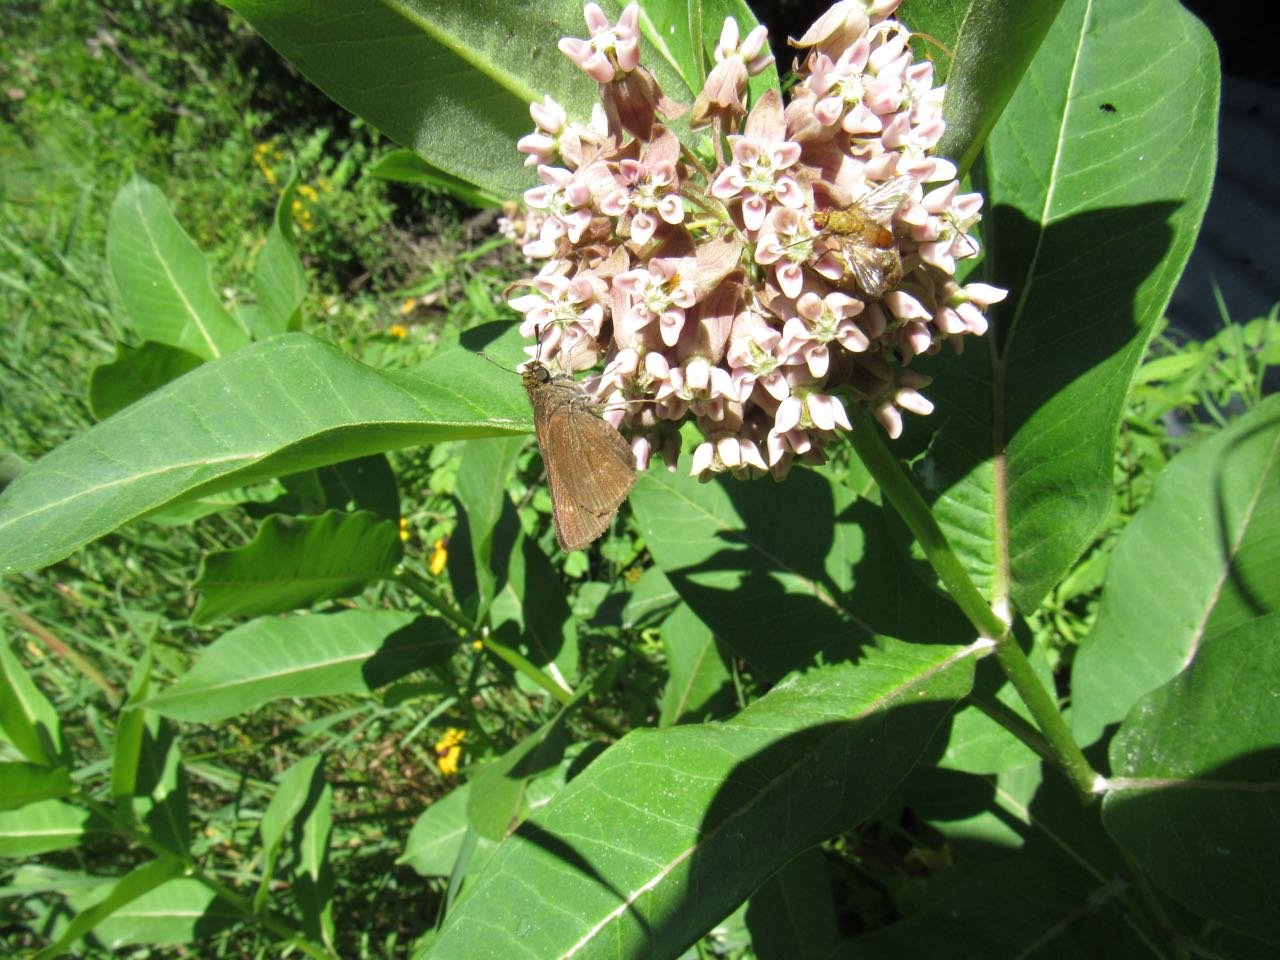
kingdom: Animalia
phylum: Arthropoda
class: Insecta
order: Lepidoptera
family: Hesperiidae
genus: Polites
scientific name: Polites egeremet
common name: Northern Broken-Dash
